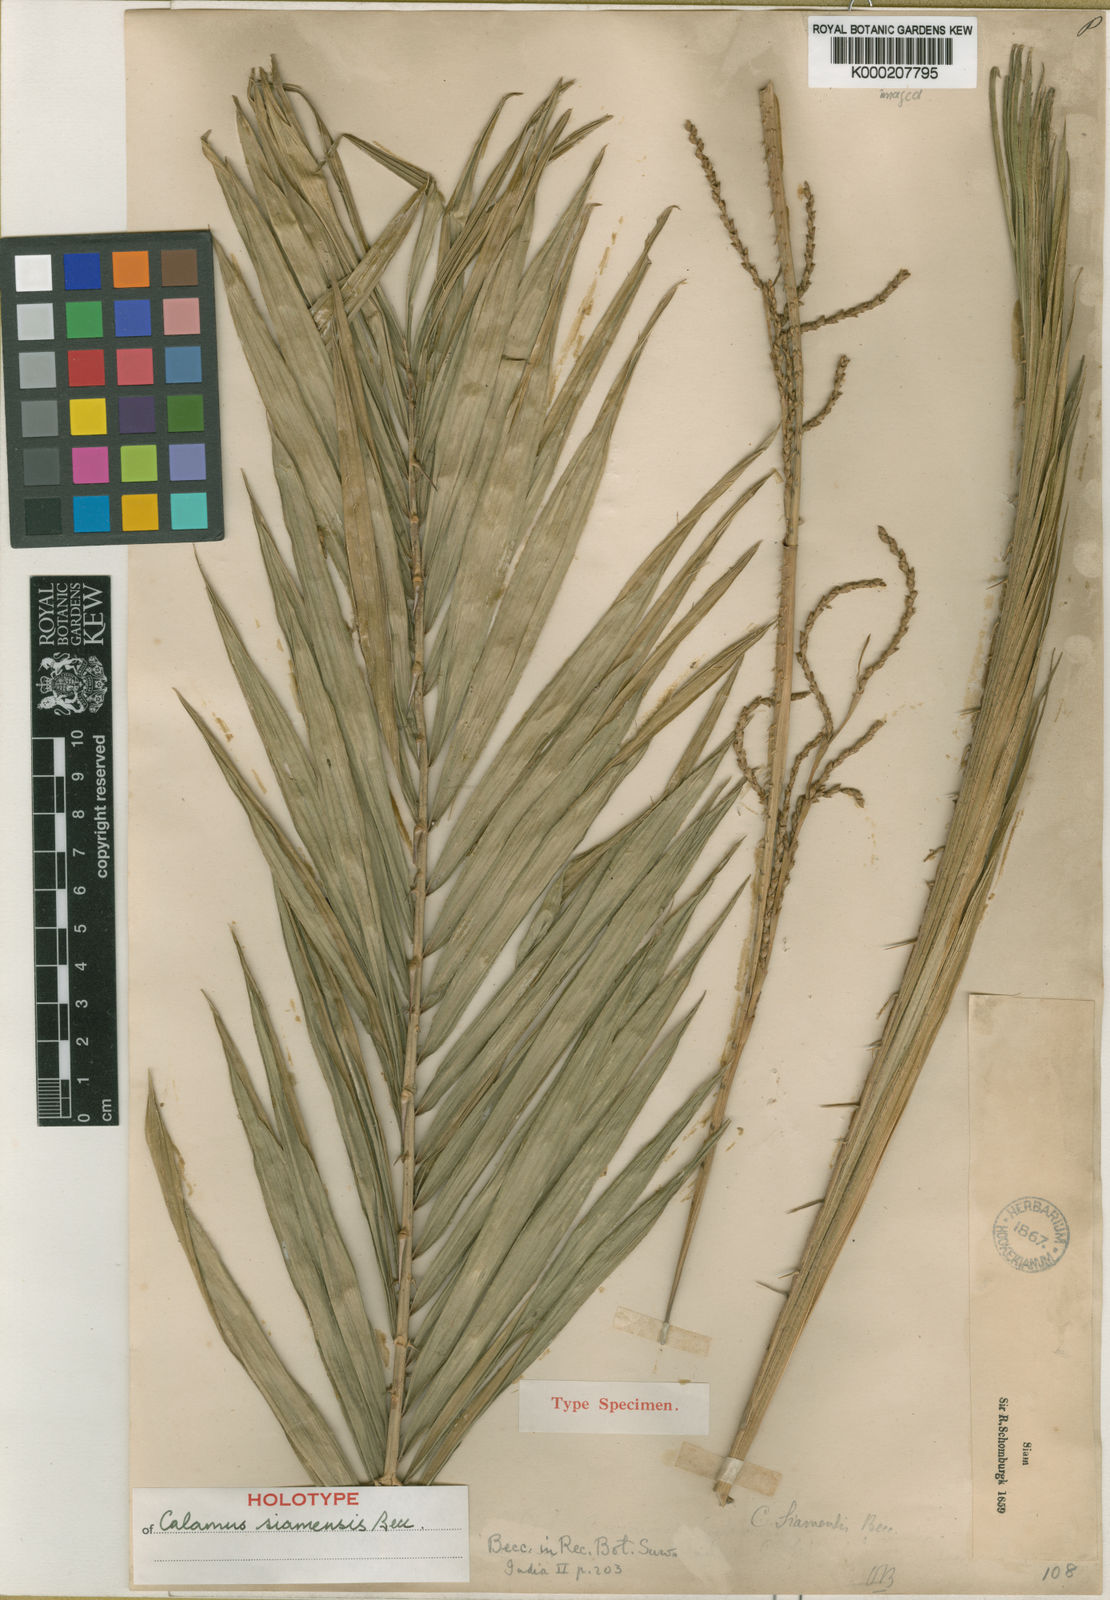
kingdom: Plantae
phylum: Tracheophyta
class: Liliopsida
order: Arecales
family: Arecaceae
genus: Calamus
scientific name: Calamus viminalis
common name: Osier-like rattan palm
